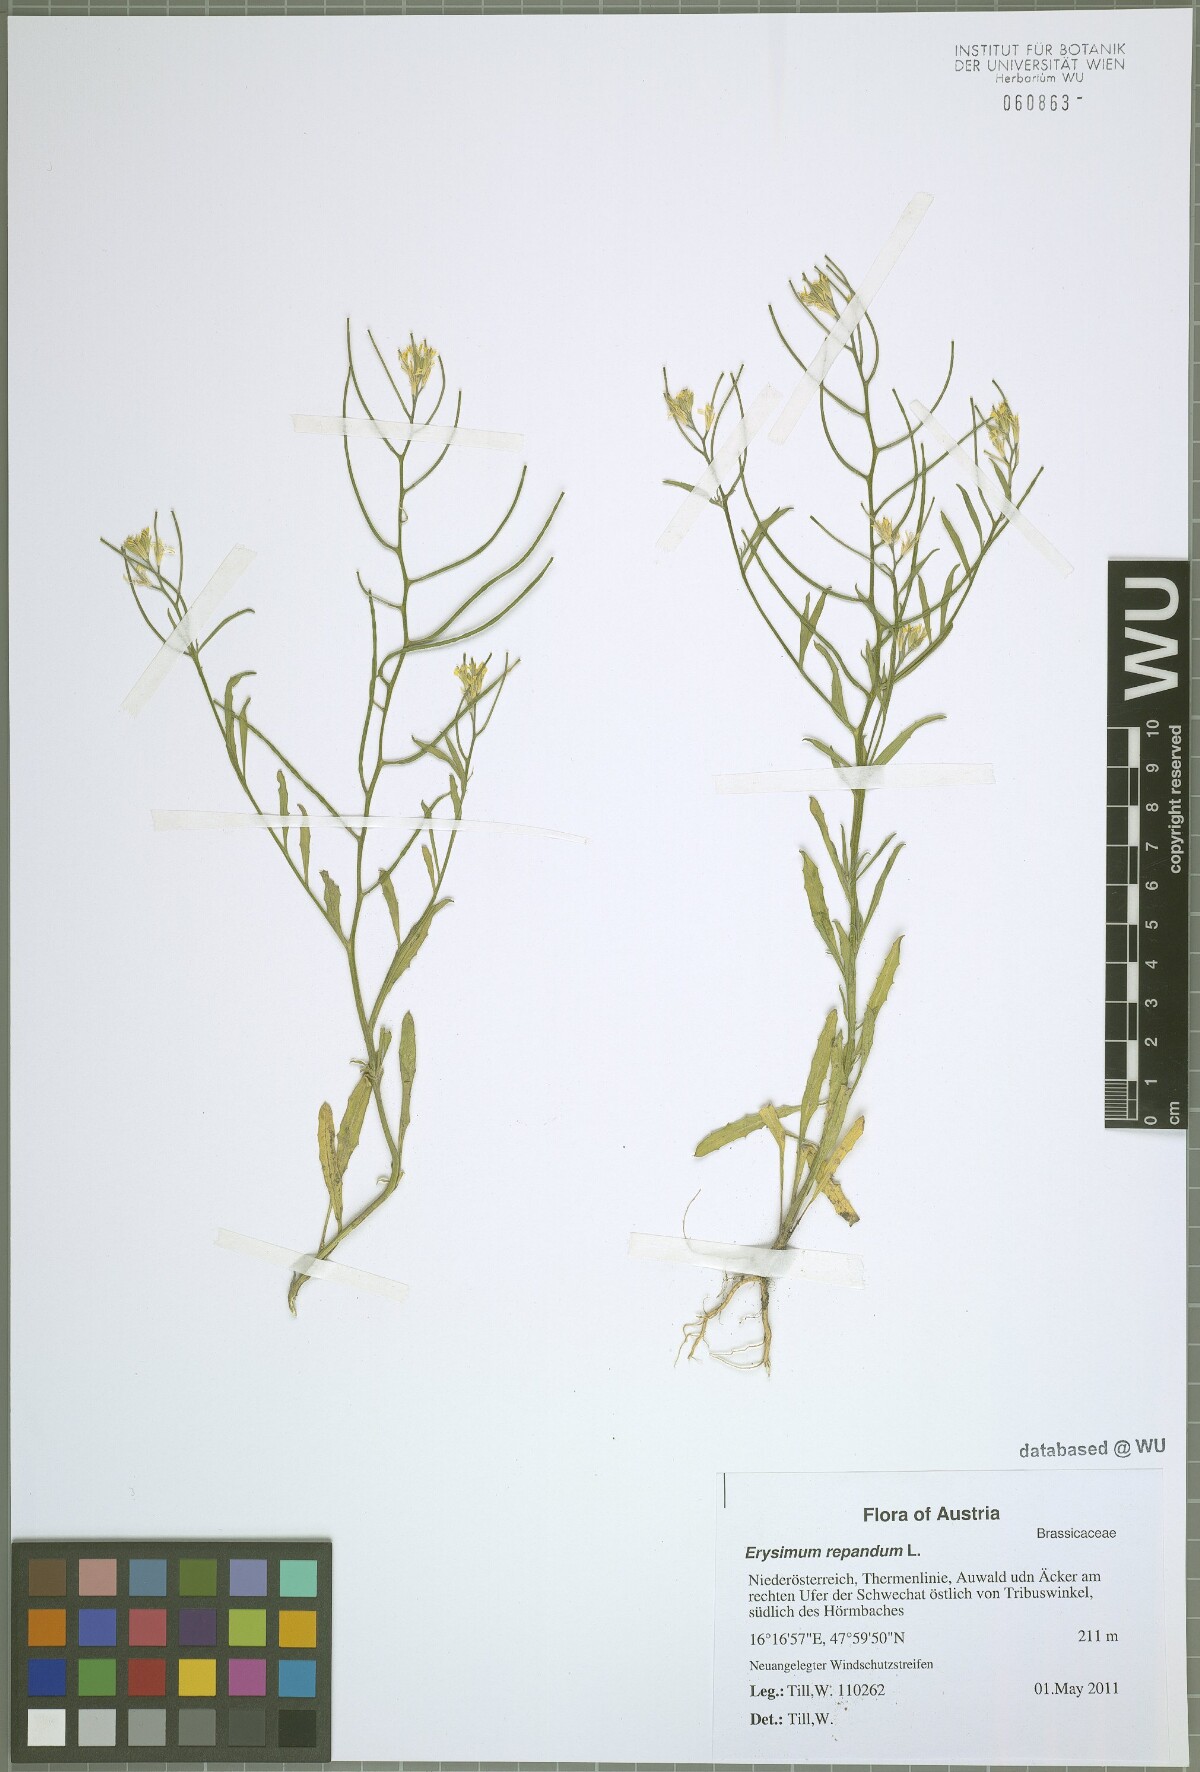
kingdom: Plantae
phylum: Tracheophyta
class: Magnoliopsida
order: Brassicales
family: Brassicaceae
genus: Erysimum
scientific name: Erysimum repandum
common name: Spreading wallflower
